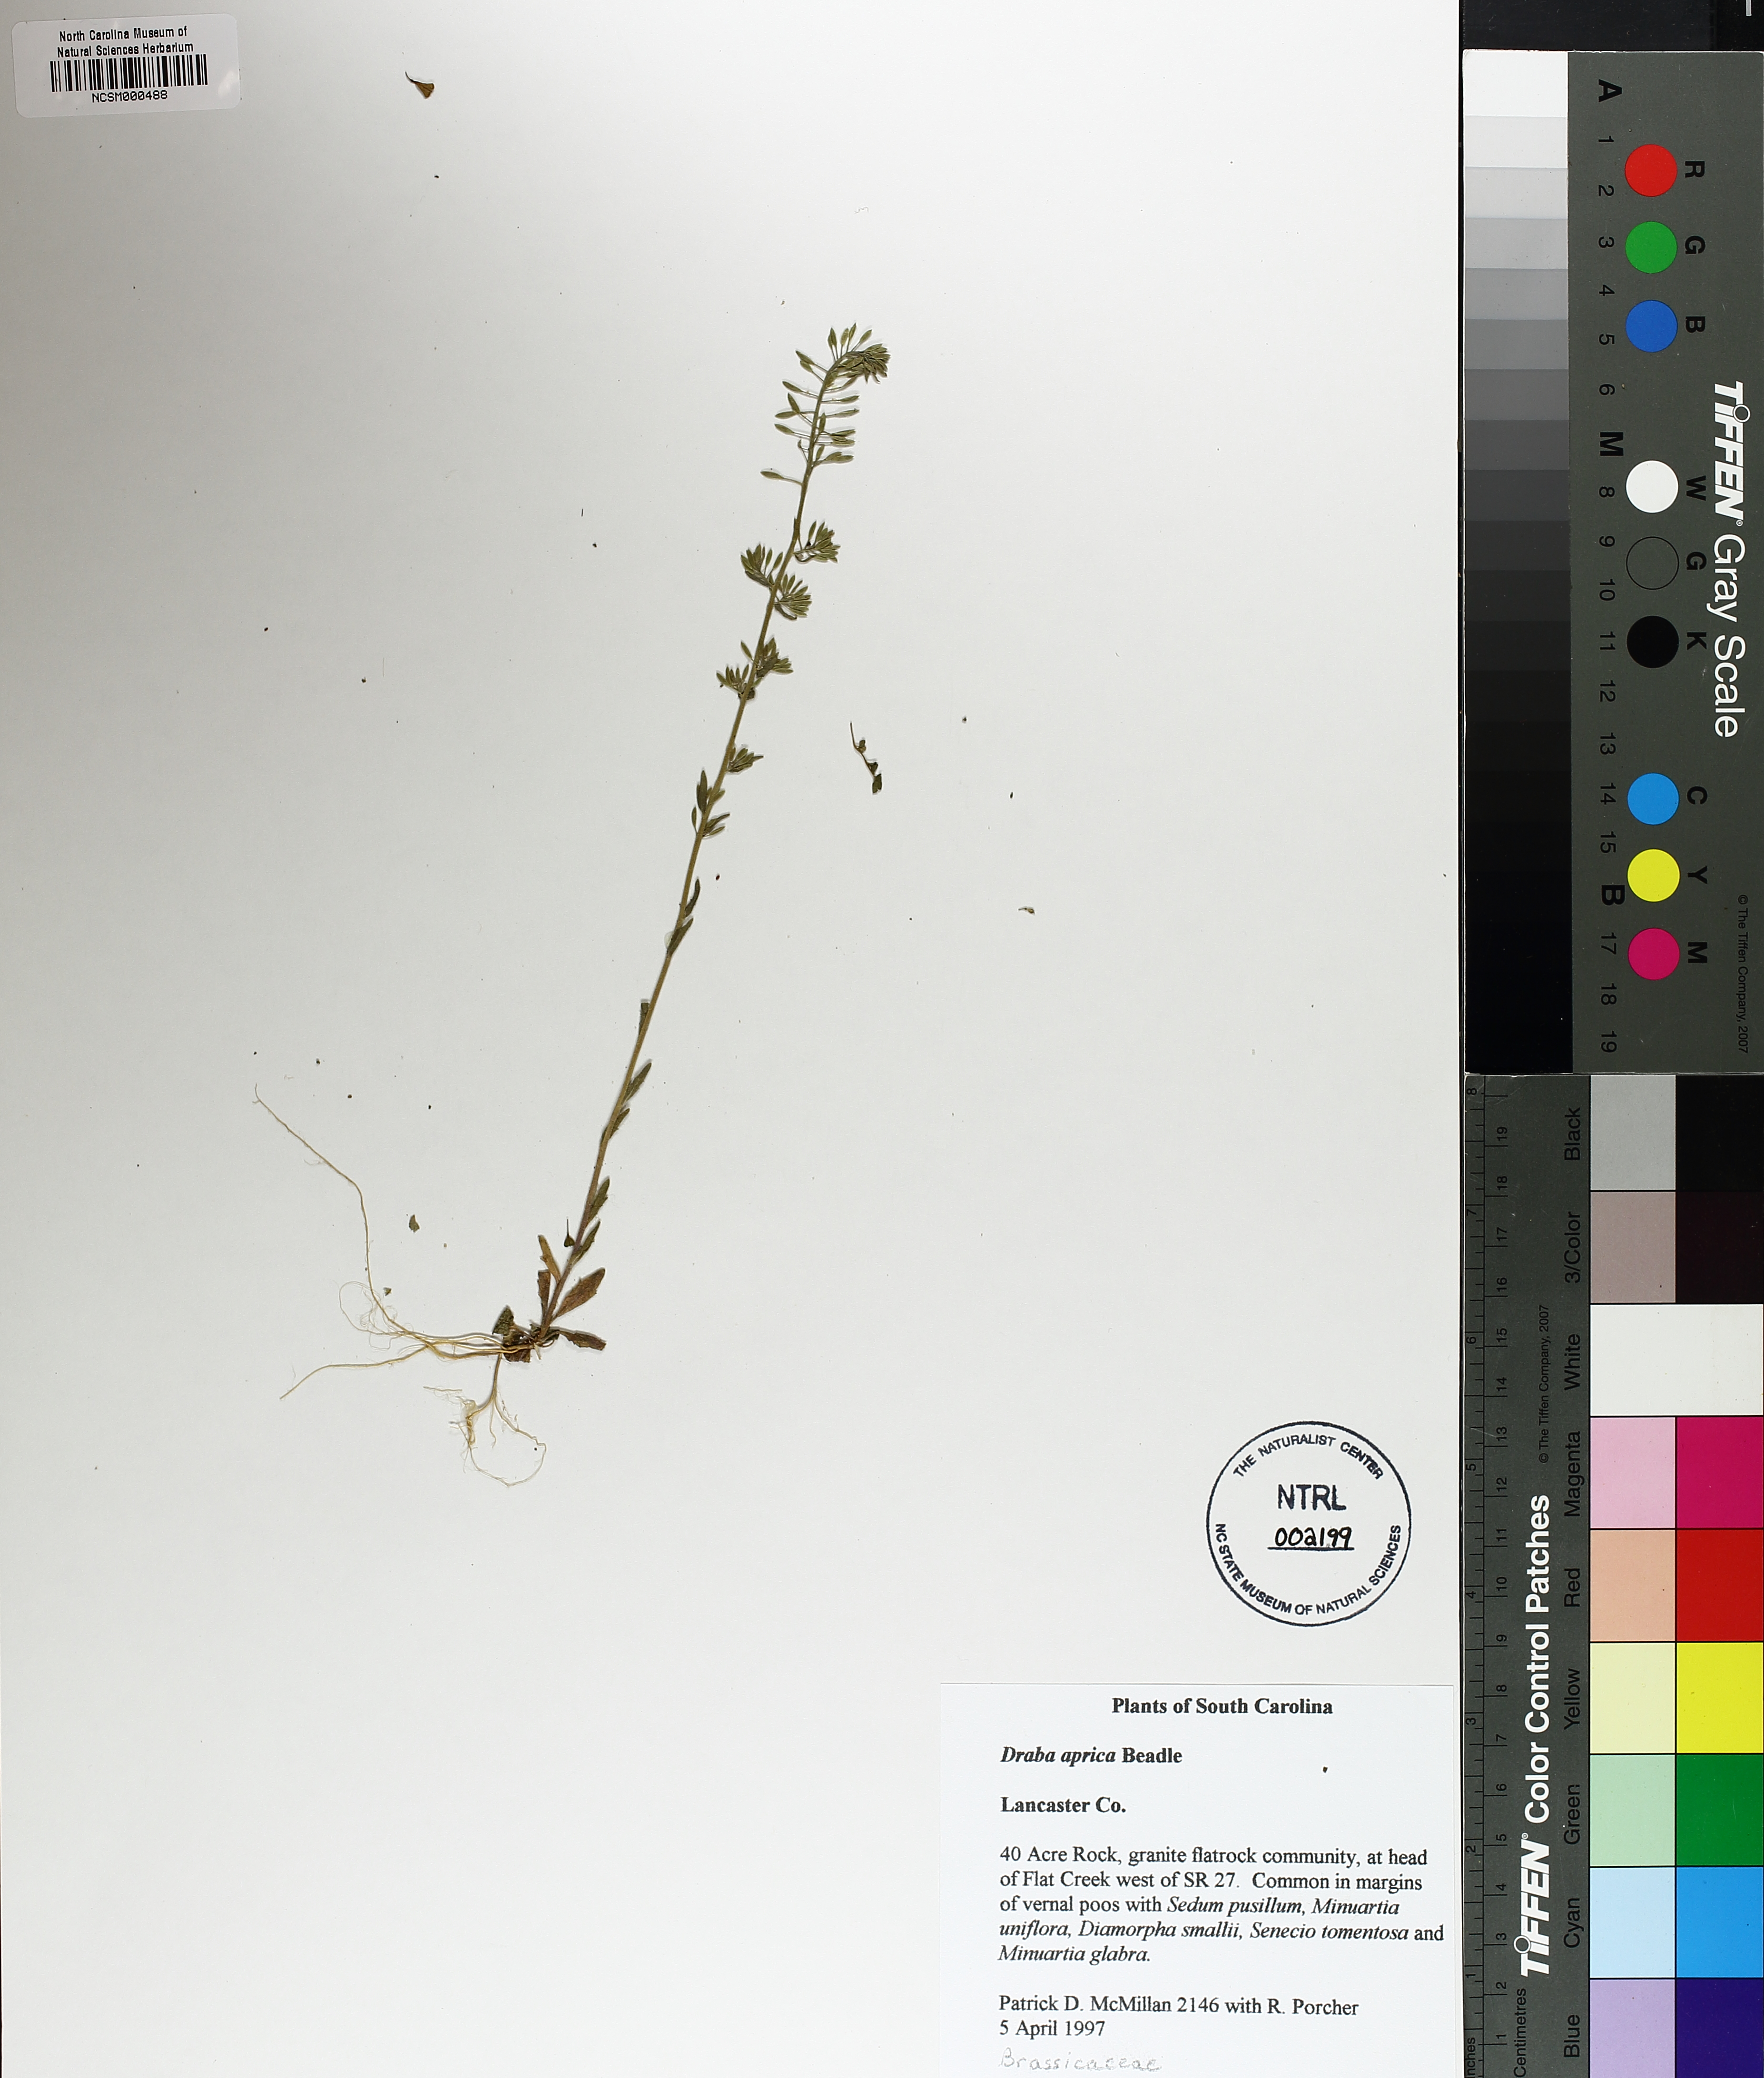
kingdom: Plantae
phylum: Tracheophyta
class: Magnoliopsida
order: Brassicales
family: Brassicaceae
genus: Abdra
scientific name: Abdra aprica
